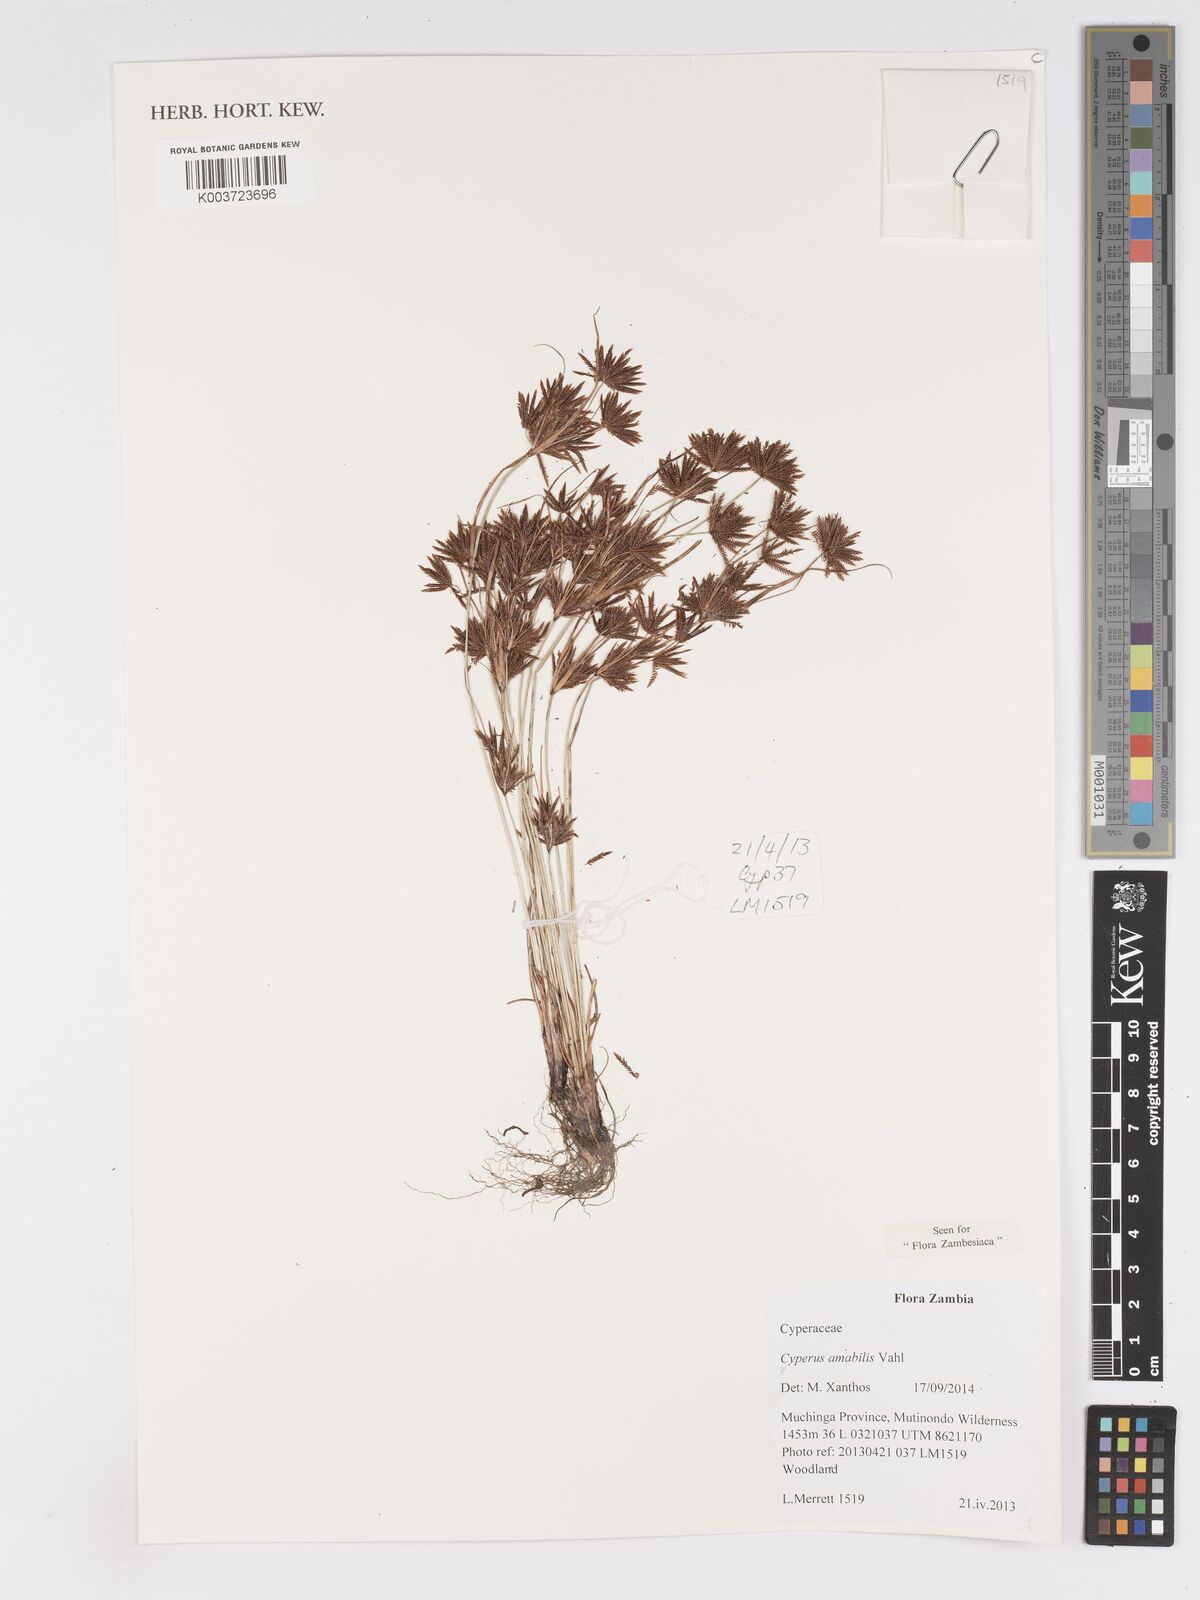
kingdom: Plantae
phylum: Tracheophyta
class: Liliopsida
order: Poales
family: Cyperaceae
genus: Cyperus
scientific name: Cyperus amabilis
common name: Foothill flat sedge
